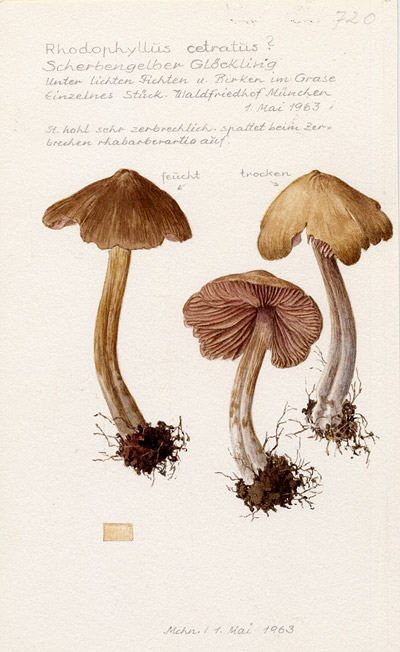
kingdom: Fungi
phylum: Basidiomycota
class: Agaricomycetes
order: Agaricales
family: Entolomataceae
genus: Entoloma
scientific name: Entoloma cetratum
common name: Honey pinkgill
